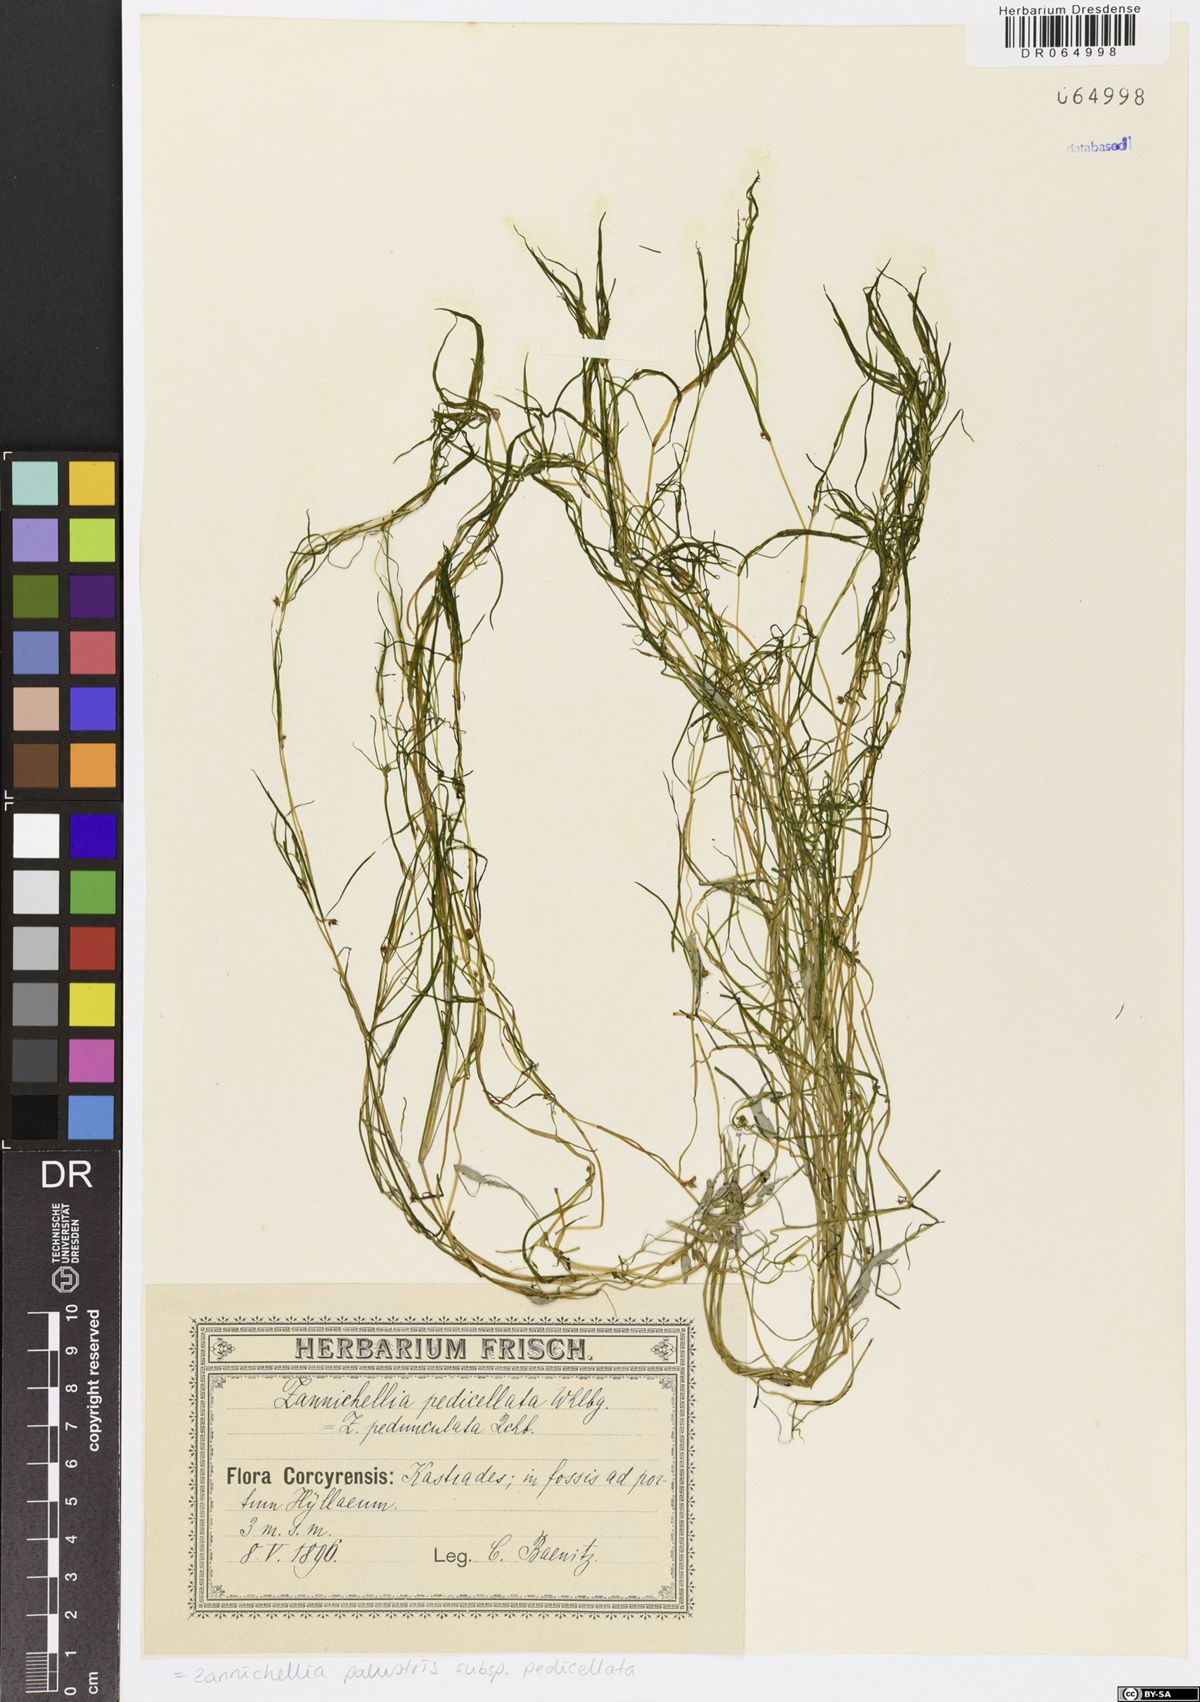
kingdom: Plantae
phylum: Tracheophyta
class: Liliopsida
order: Alismatales
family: Potamogetonaceae
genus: Zannichellia
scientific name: Zannichellia palustris
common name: Horned pondweed
